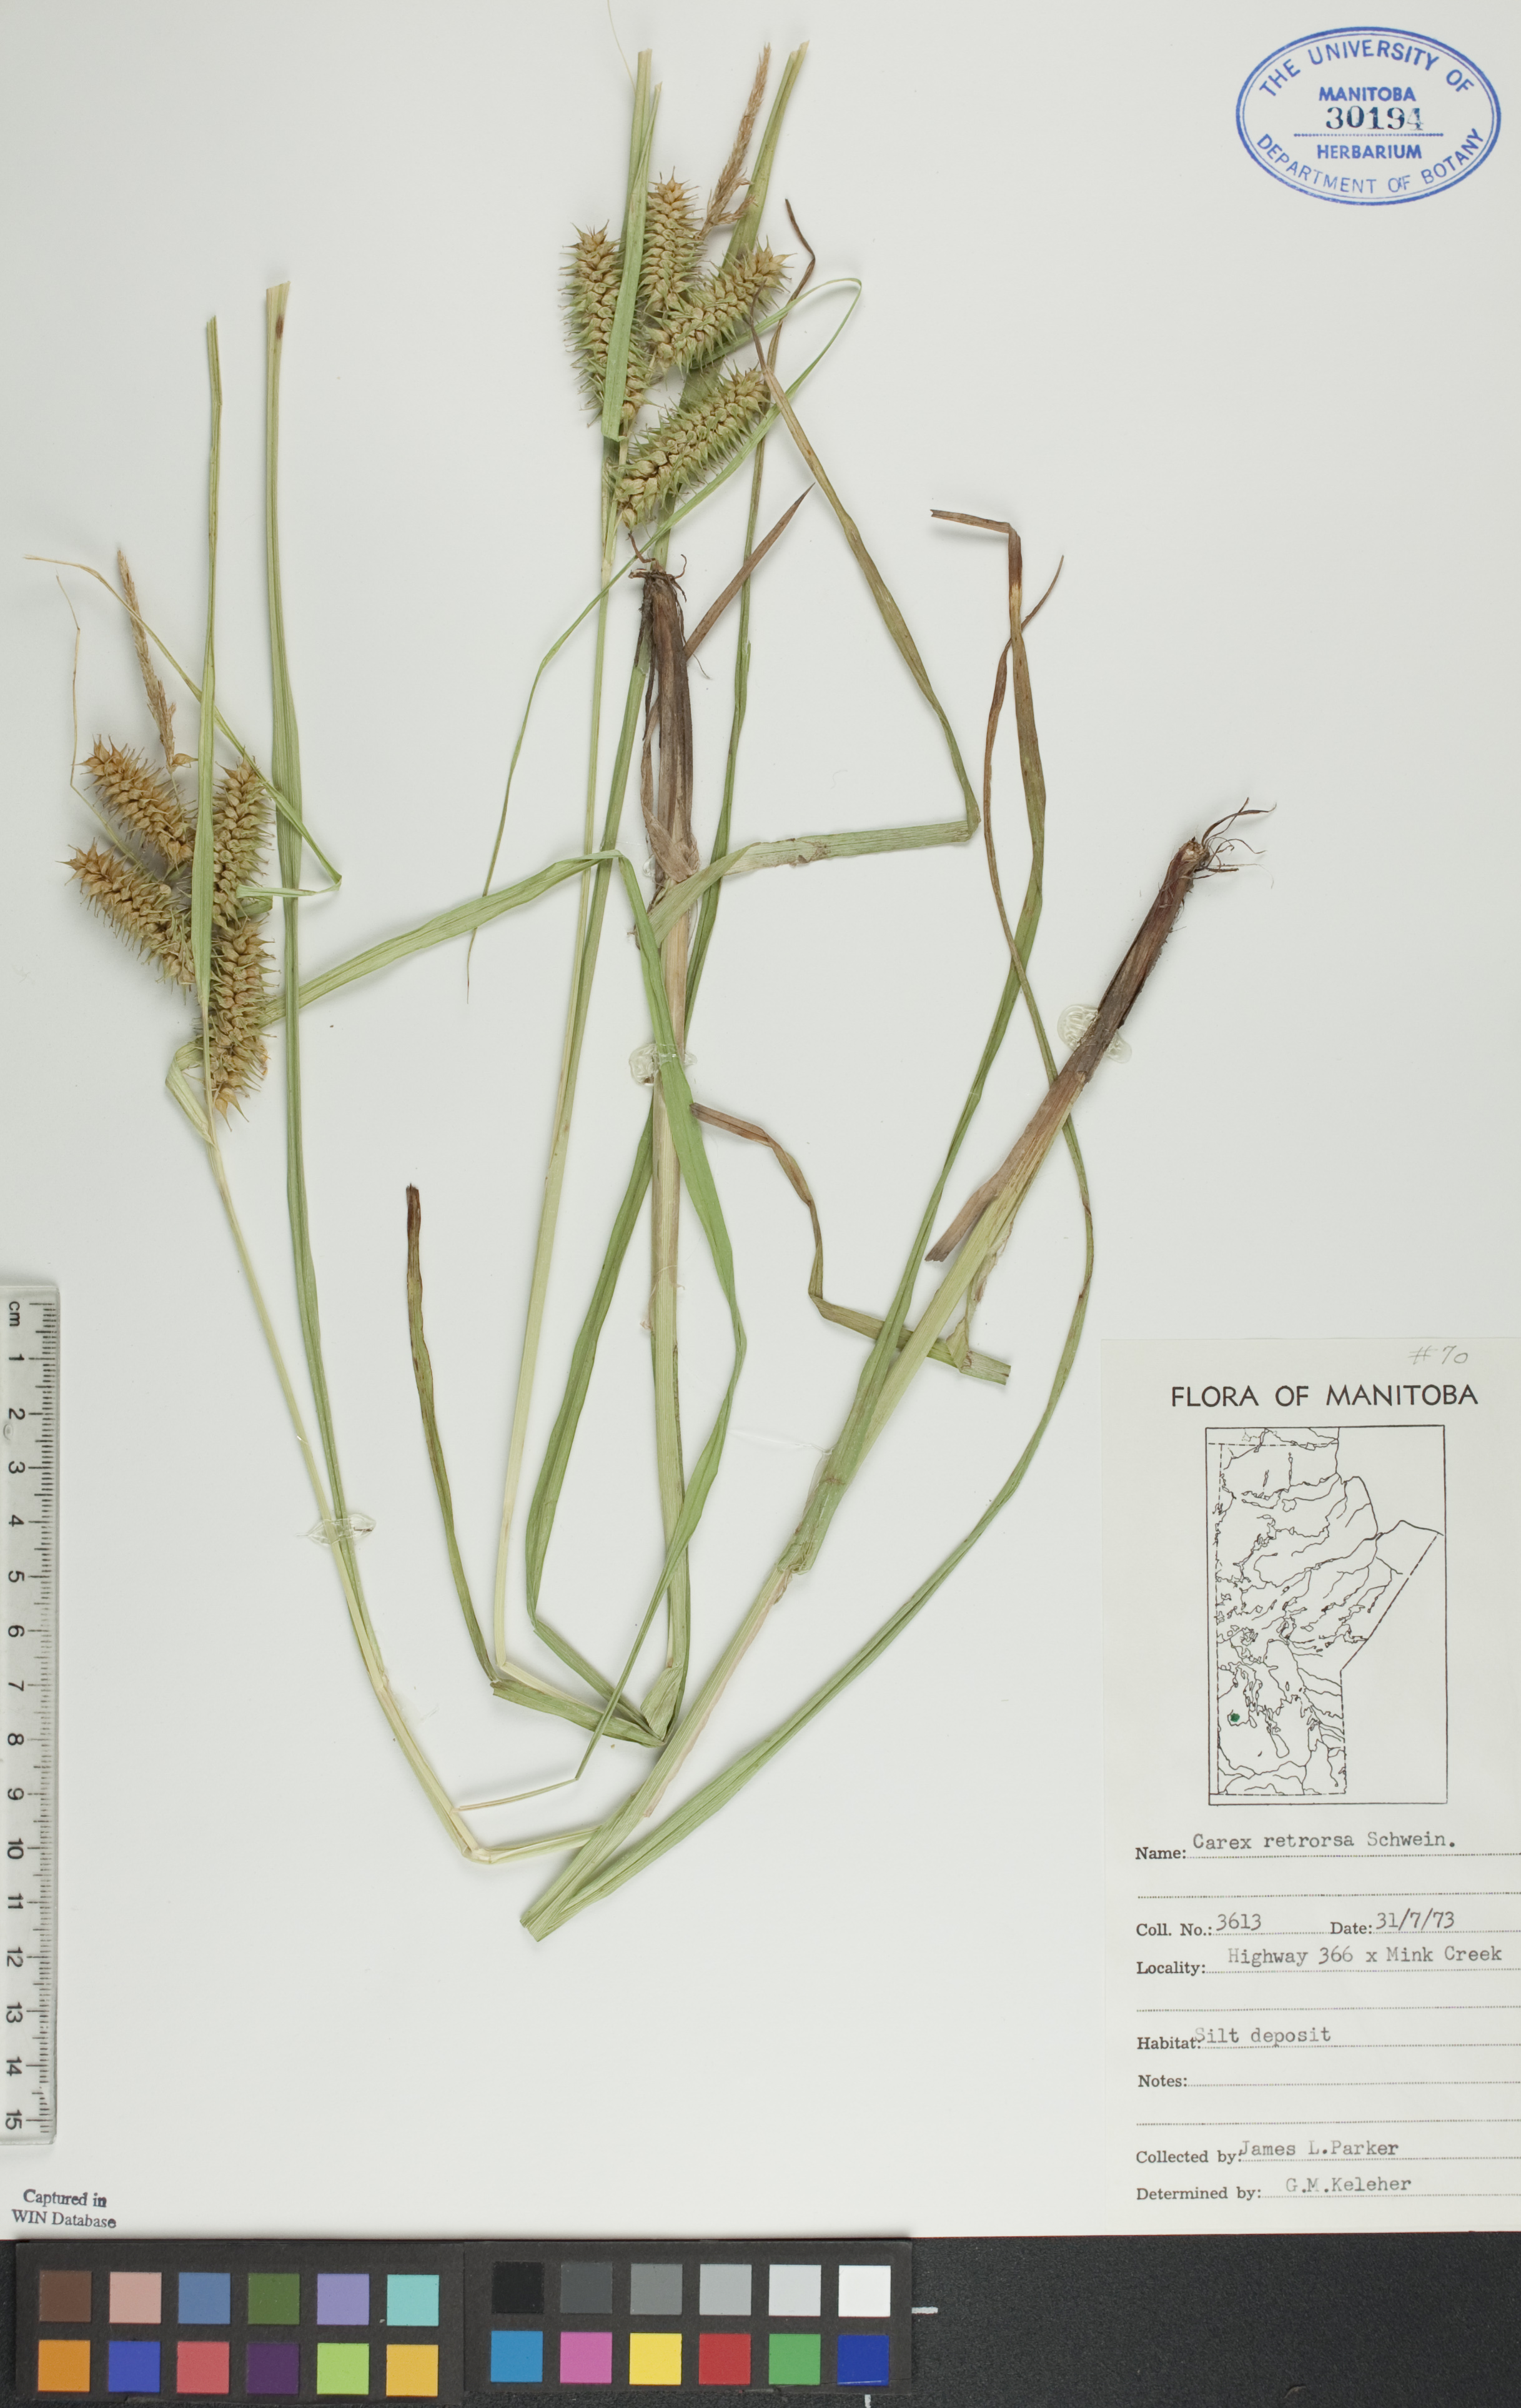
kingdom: Plantae
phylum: Tracheophyta
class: Liliopsida
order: Poales
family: Cyperaceae
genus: Carex
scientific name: Carex retrorsa
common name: Knot-sheath sedge
